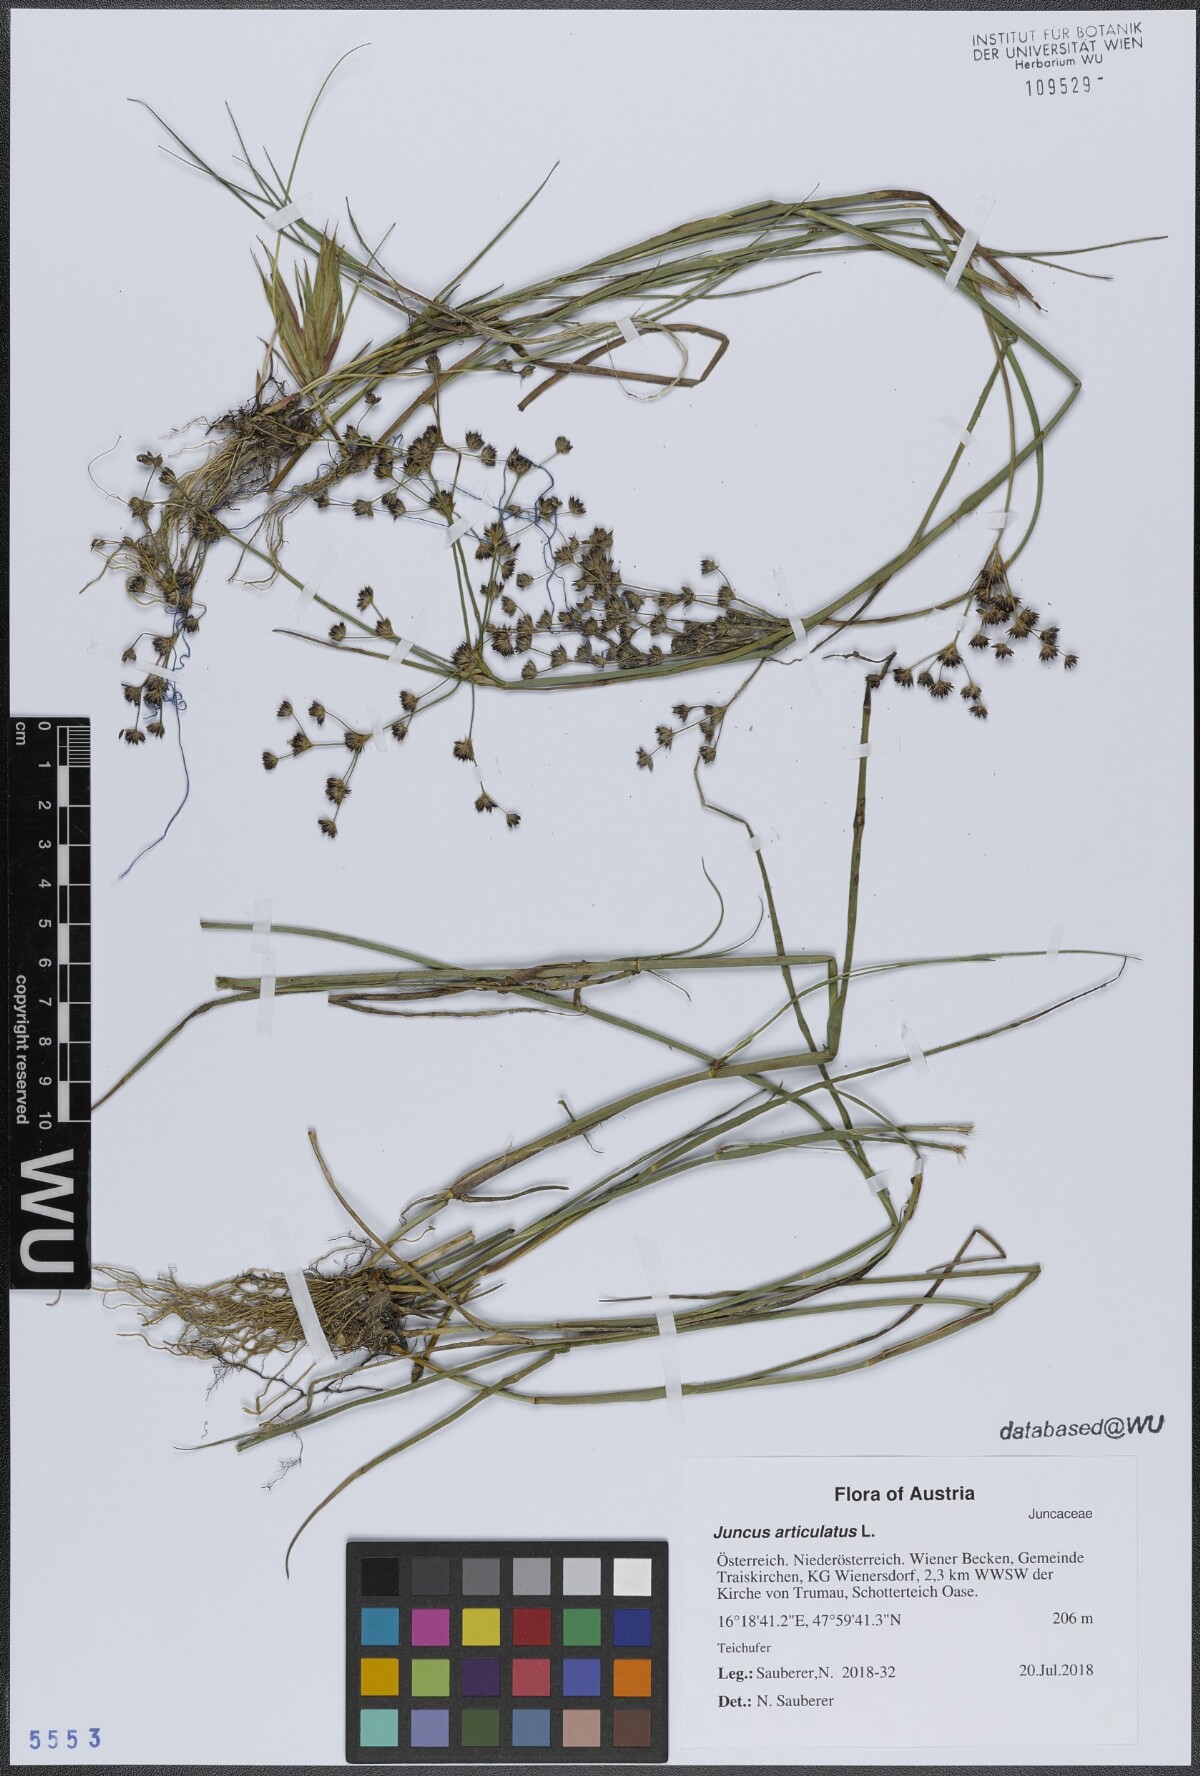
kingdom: Plantae
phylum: Tracheophyta
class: Liliopsida
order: Poales
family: Juncaceae
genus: Juncus
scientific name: Juncus articulatus
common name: Jointed rush
